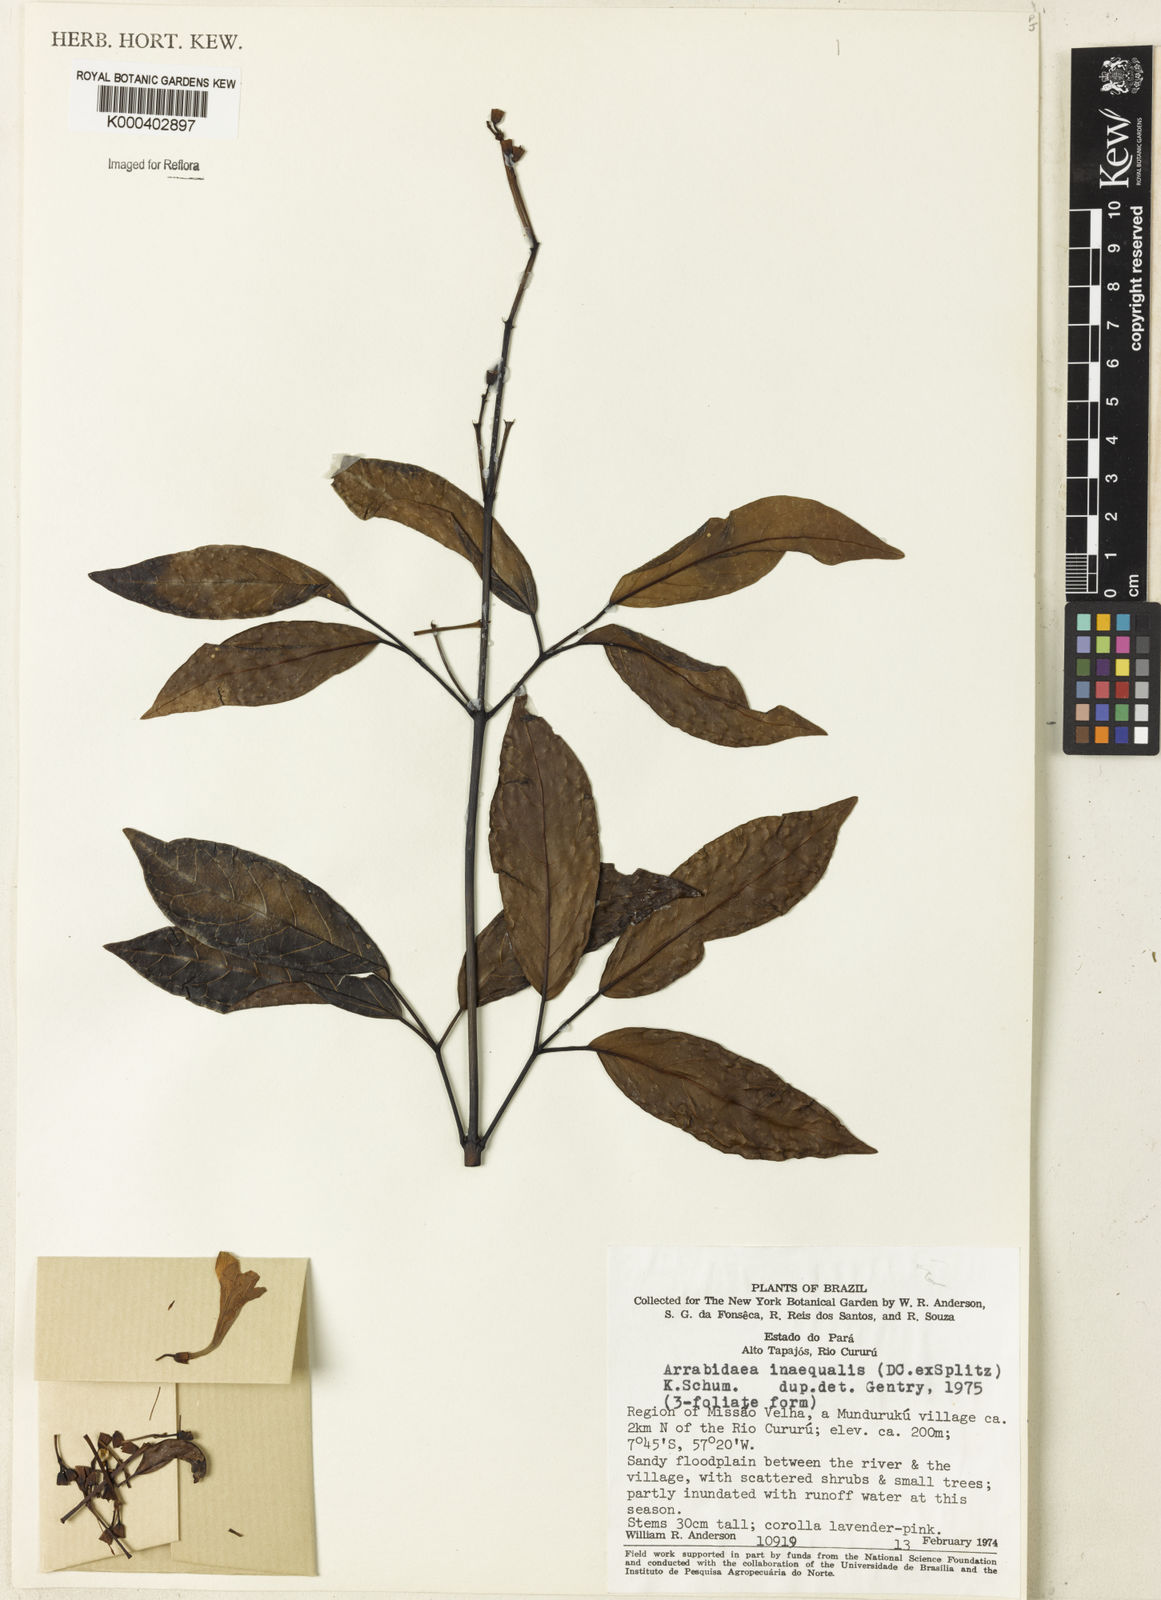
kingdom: Plantae
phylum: Tracheophyta
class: Magnoliopsida
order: Lamiales
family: Bignoniaceae
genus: Cuspidaria
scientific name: Cuspidaria inaequalis
